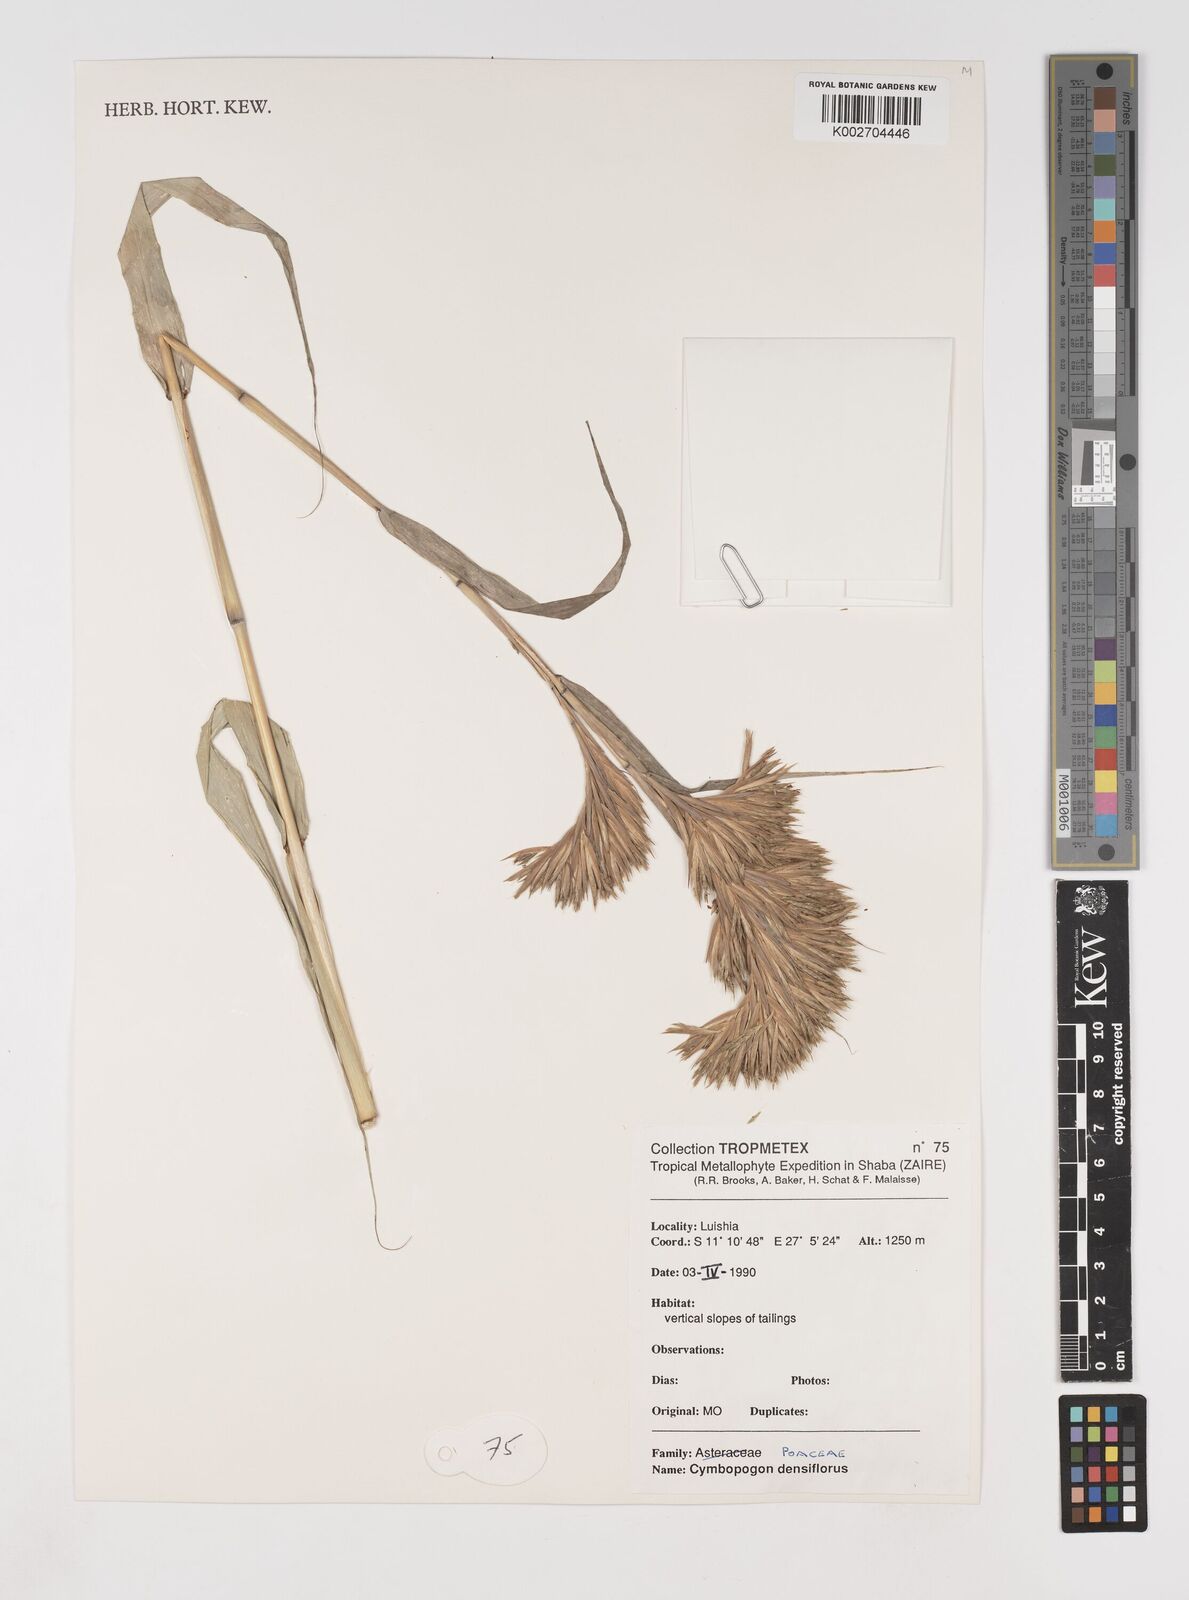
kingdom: Plantae
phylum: Tracheophyta
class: Liliopsida
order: Poales
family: Poaceae
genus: Cymbopogon
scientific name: Cymbopogon densiflorus
